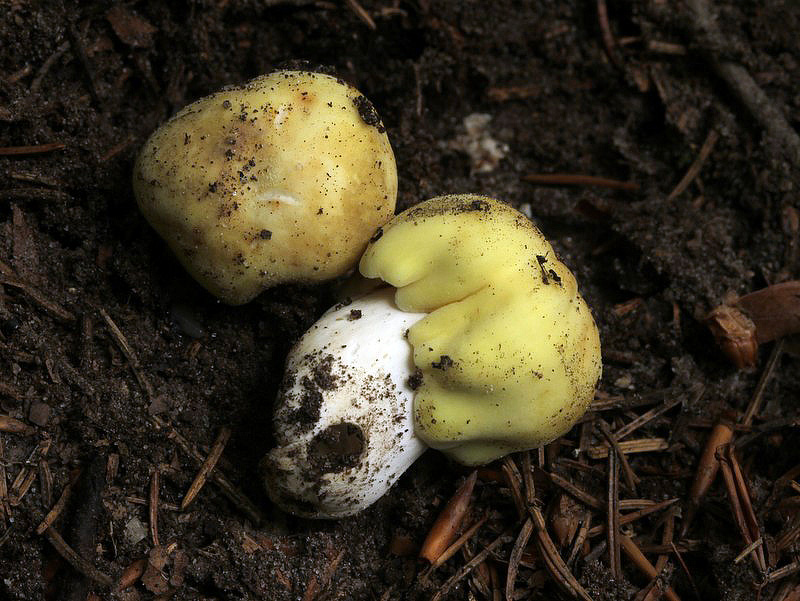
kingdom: Fungi
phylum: Basidiomycota
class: Agaricomycetes
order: Russulales
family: Russulaceae
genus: Russula
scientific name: Russula violeipes
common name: ferskengul skørhat
